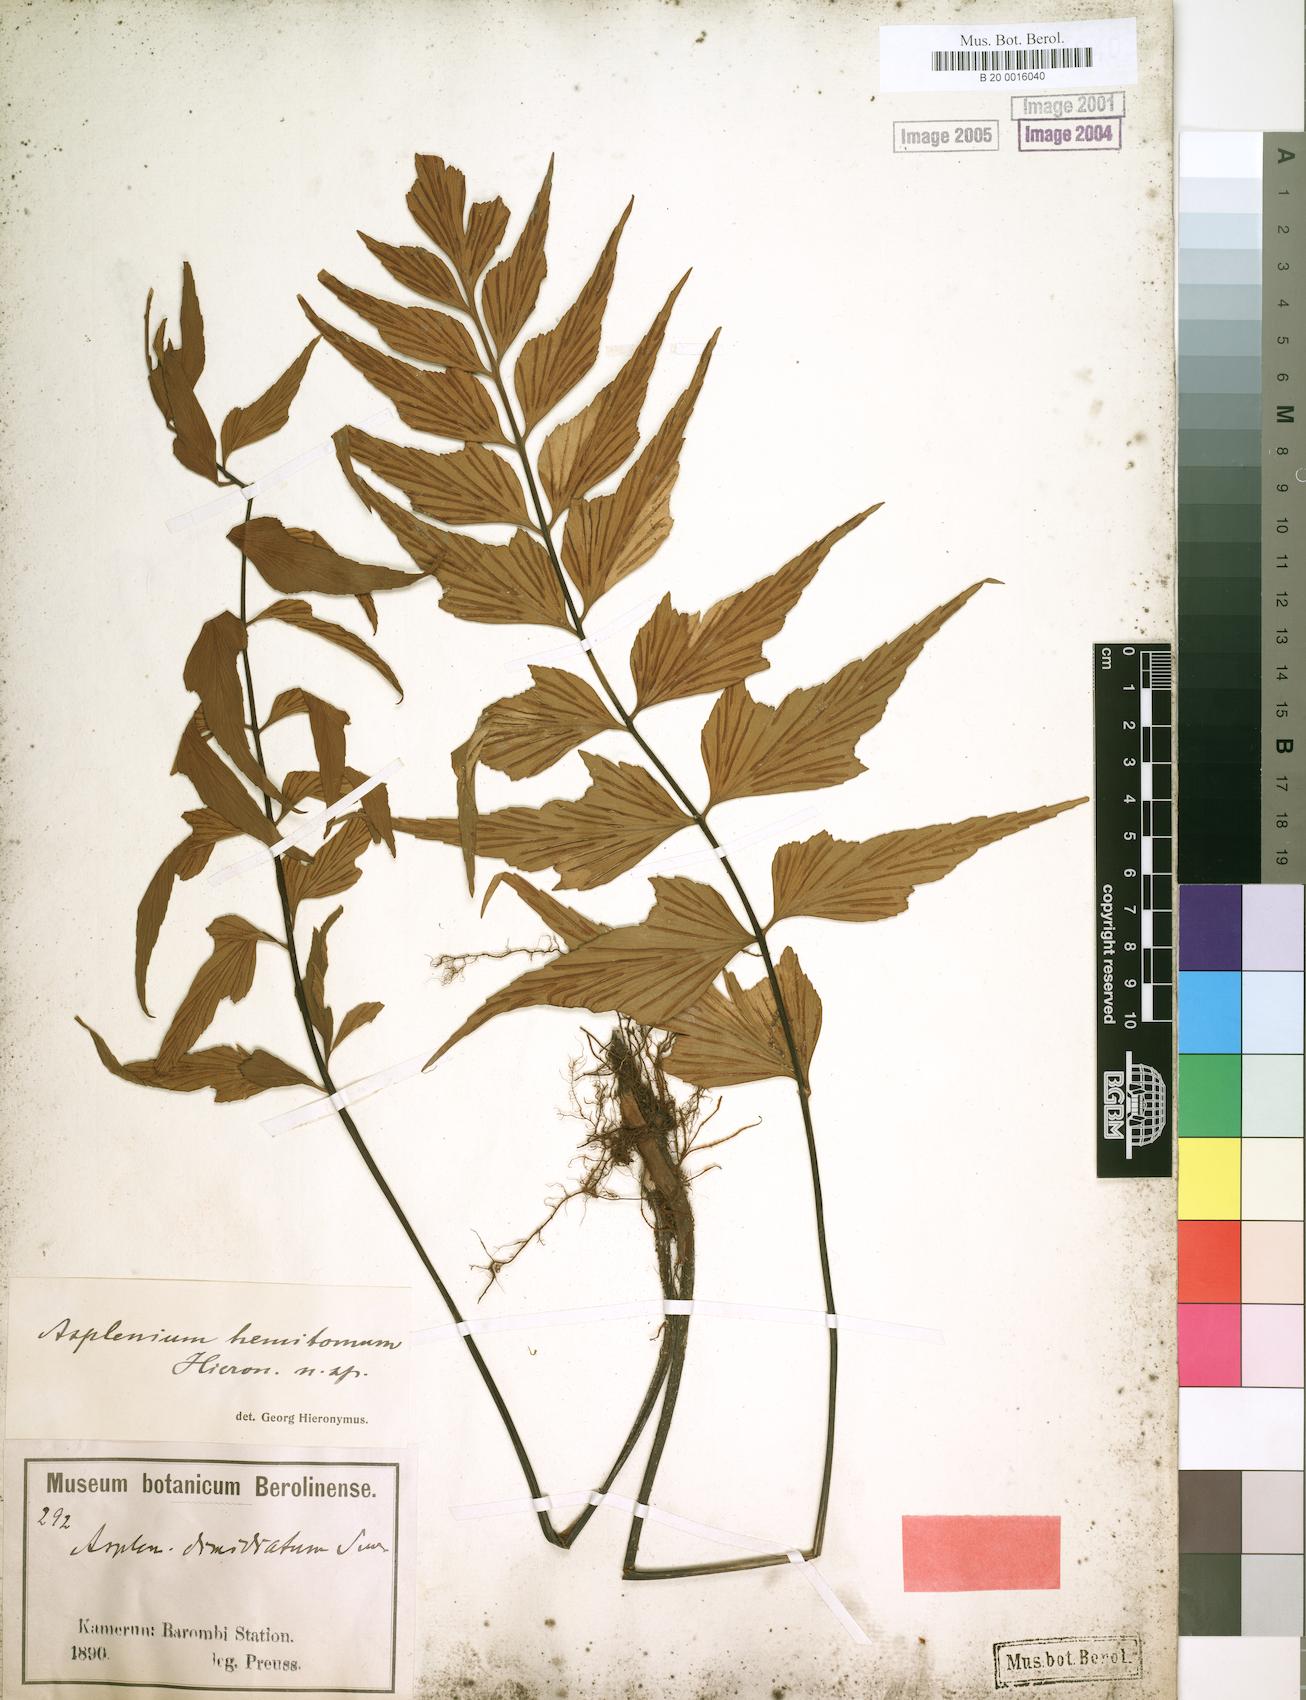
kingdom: Plantae
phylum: Tracheophyta
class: Polypodiopsida
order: Polypodiales
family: Aspleniaceae
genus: Asplenium
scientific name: Asplenium hemitomum
